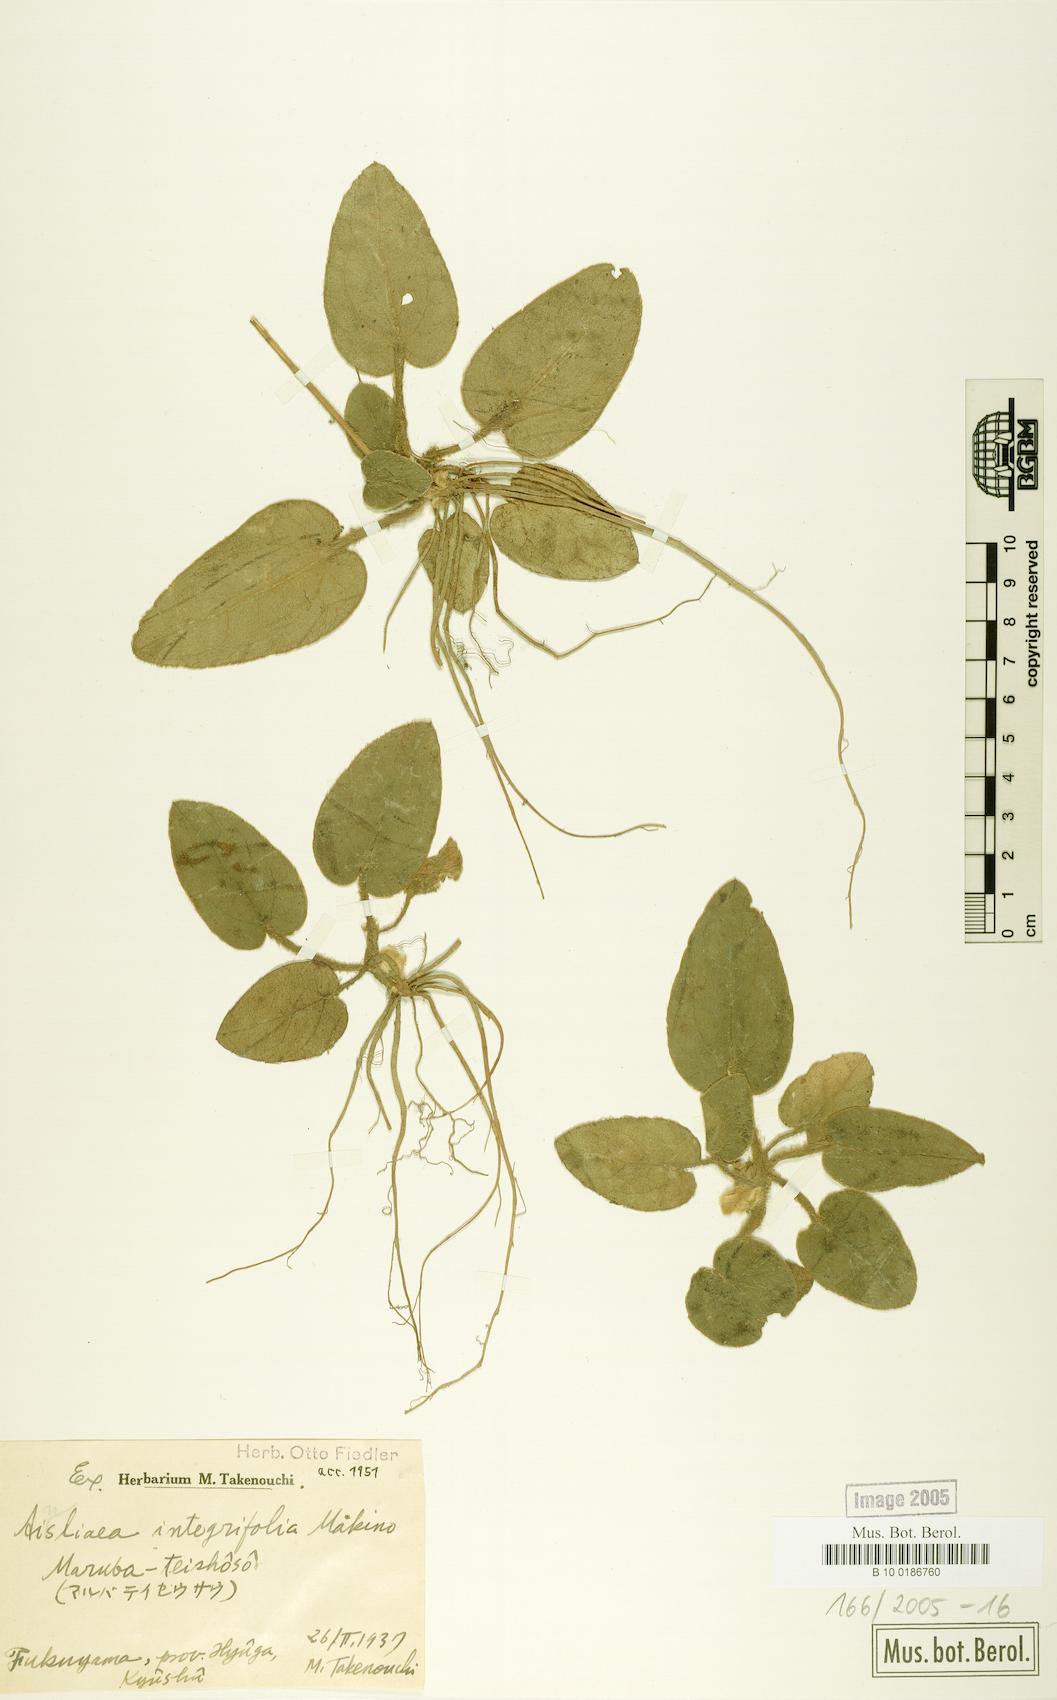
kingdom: Plantae
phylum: Tracheophyta
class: Magnoliopsida
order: Asterales
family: Asteraceae
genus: Ainsliaea
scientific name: Ainsliaea fragrans
